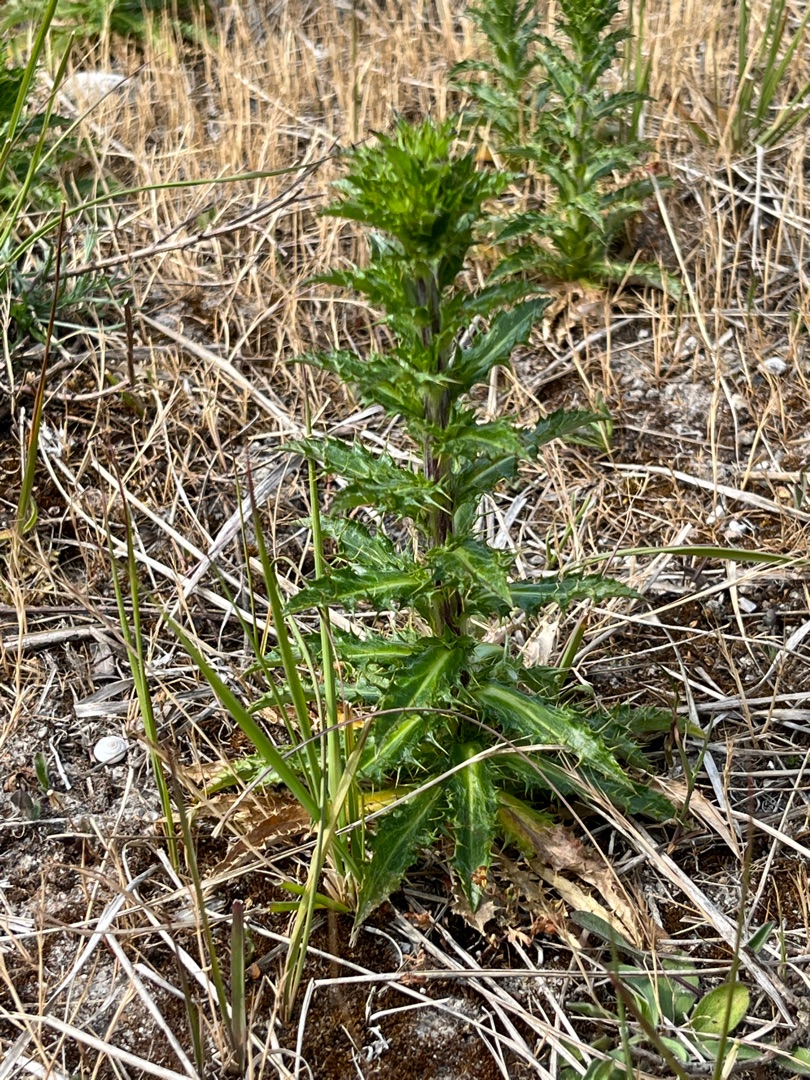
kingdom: Plantae
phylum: Tracheophyta
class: Magnoliopsida
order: Asterales
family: Asteraceae
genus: Carlina
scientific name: Carlina vulgaris
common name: Bakketidsel
